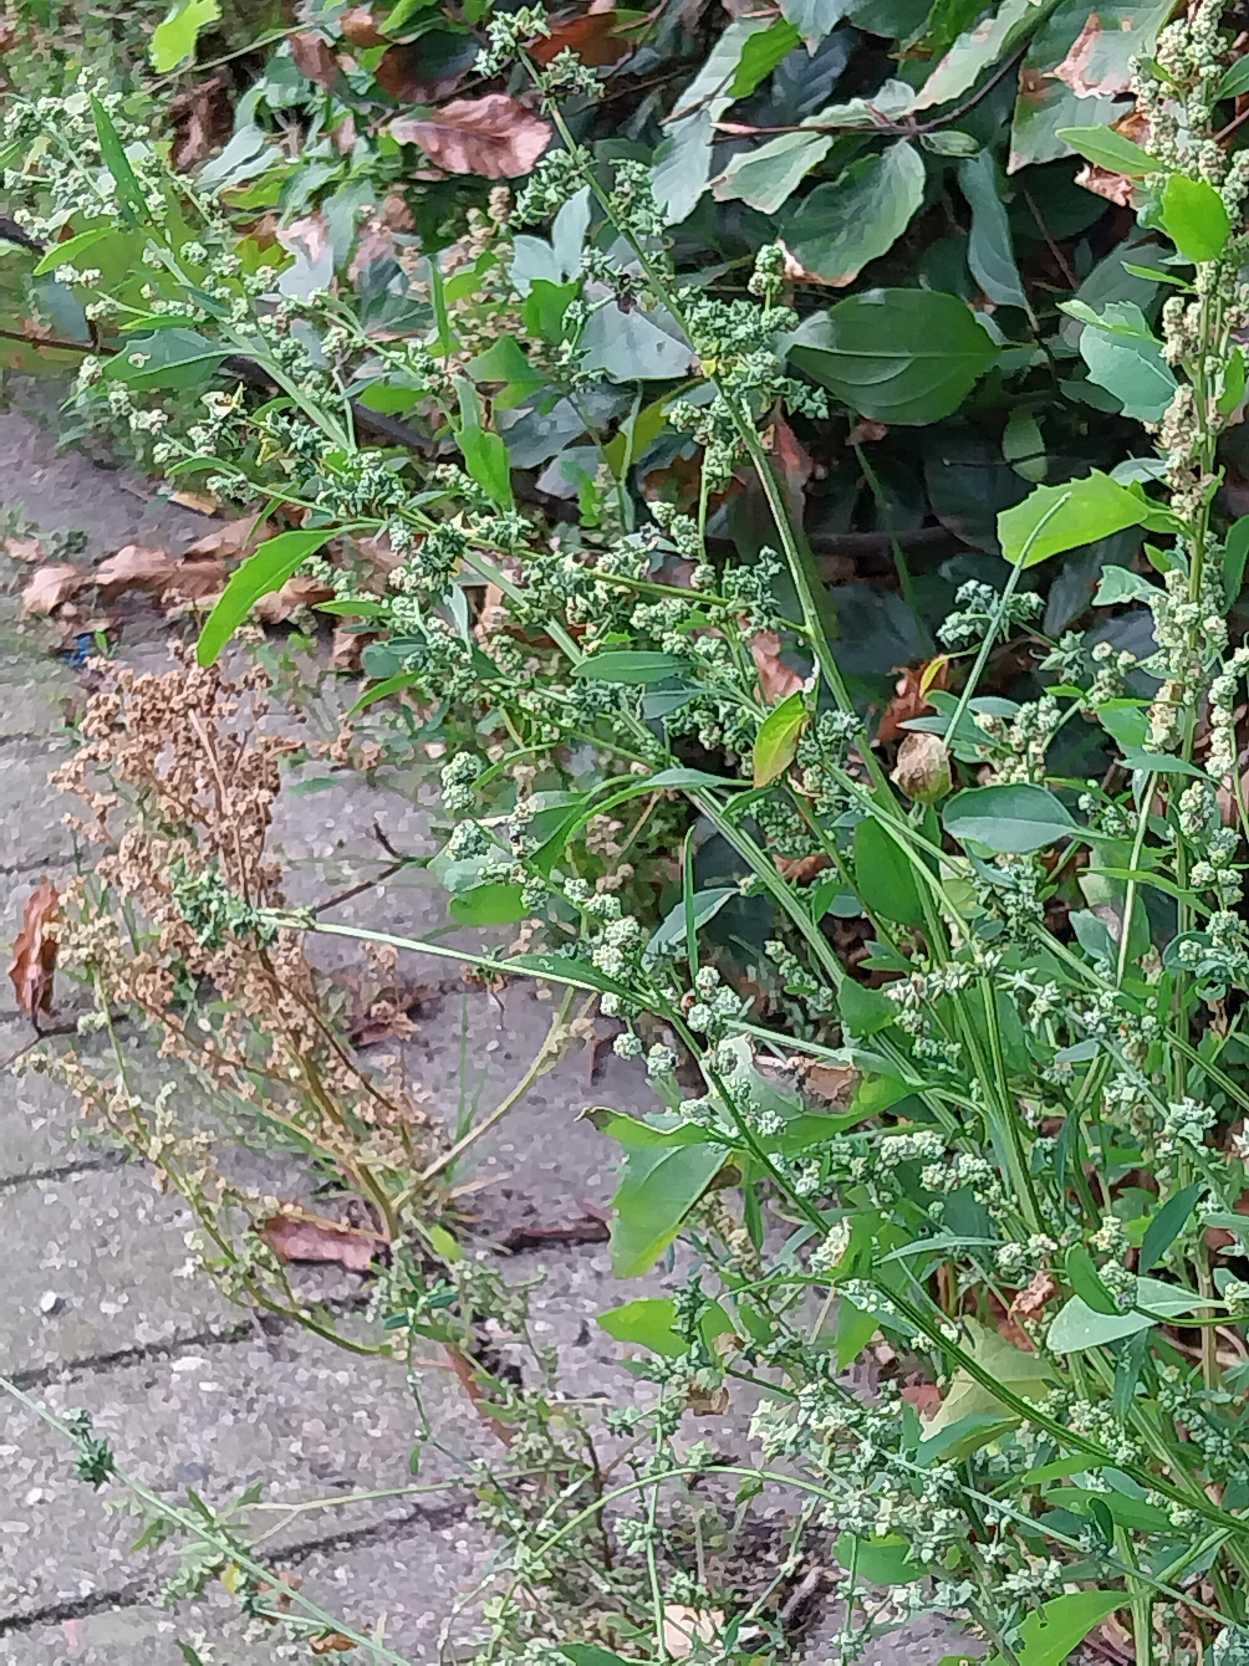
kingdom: Plantae
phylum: Tracheophyta
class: Magnoliopsida
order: Caryophyllales
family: Amaranthaceae
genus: Chenopodium
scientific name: Chenopodium album
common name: Hvidmelet gåsefod
